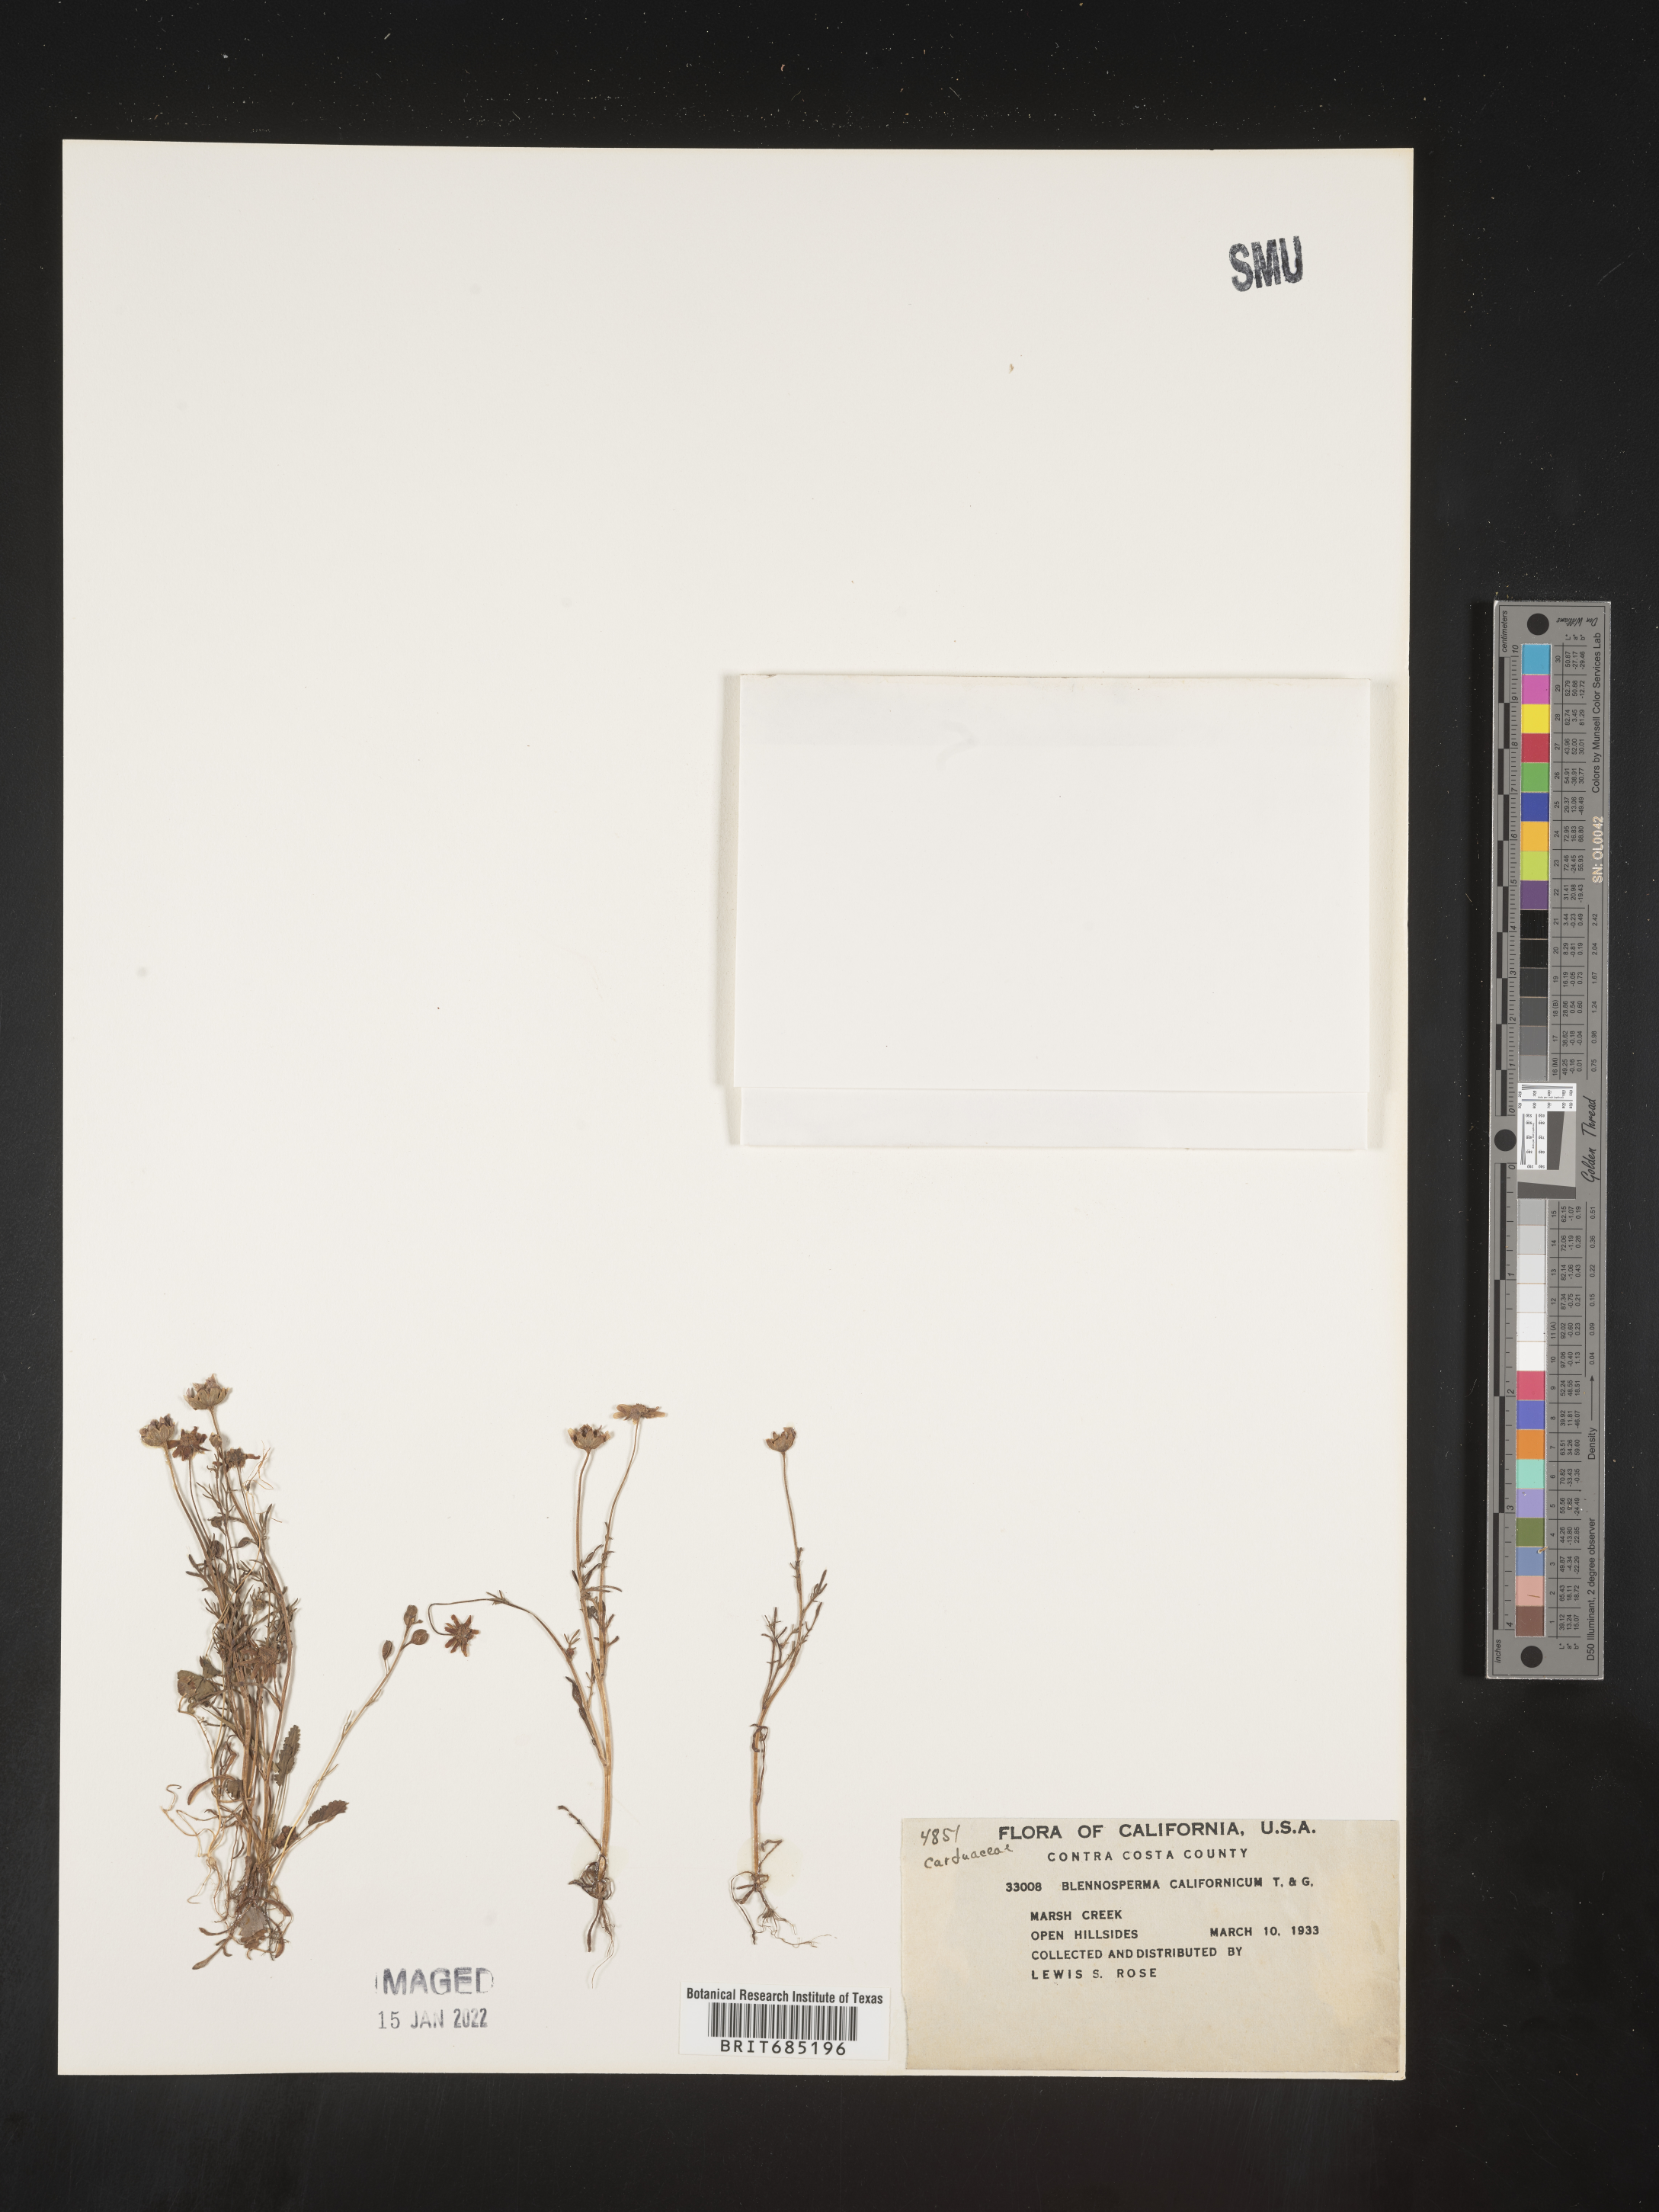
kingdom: Plantae
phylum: Tracheophyta
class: Magnoliopsida
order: Asterales
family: Asteraceae
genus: Blennosperma
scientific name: Blennosperma
